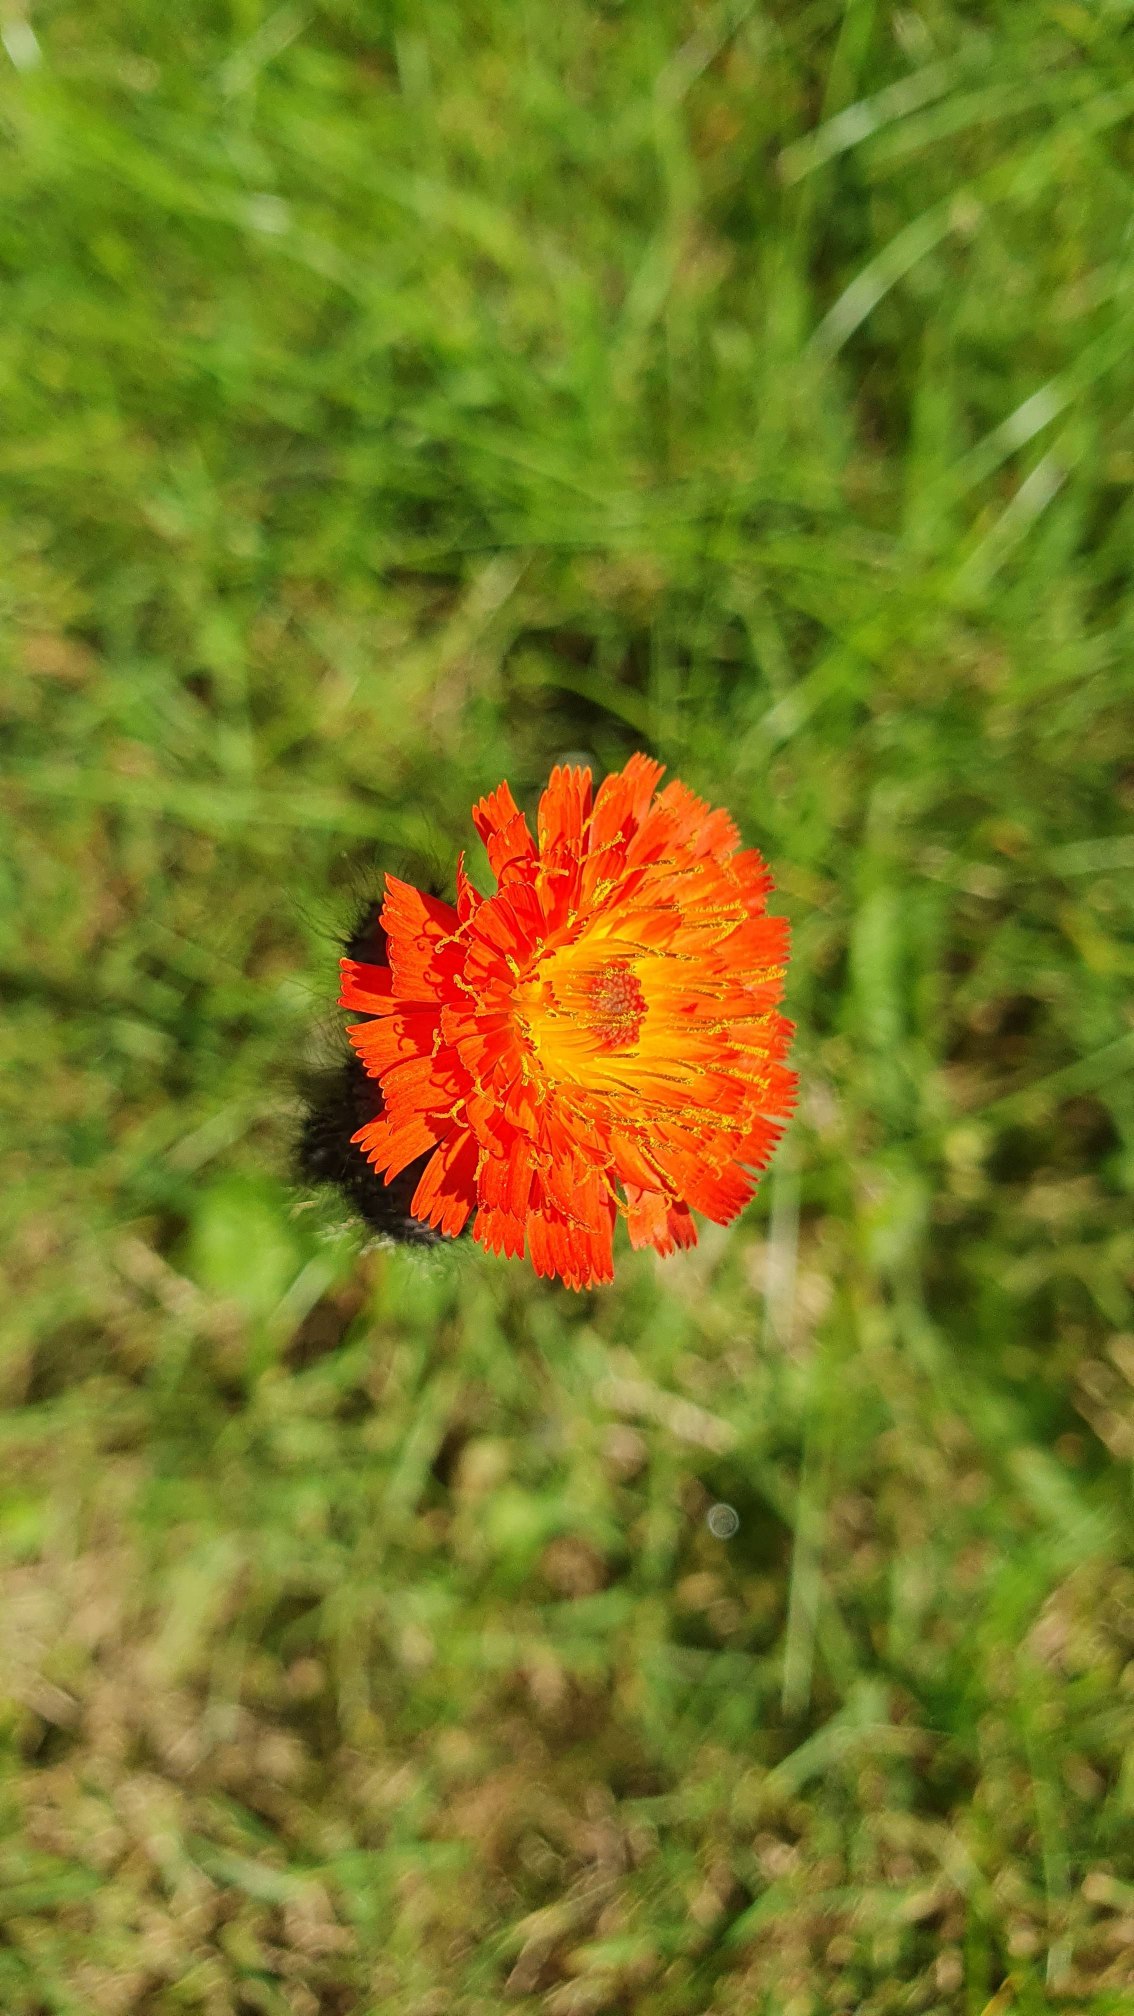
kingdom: Plantae
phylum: Tracheophyta
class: Magnoliopsida
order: Asterales
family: Asteraceae
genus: Pilosella
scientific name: Pilosella aurantiaca
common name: Pomerans-høgeurt
